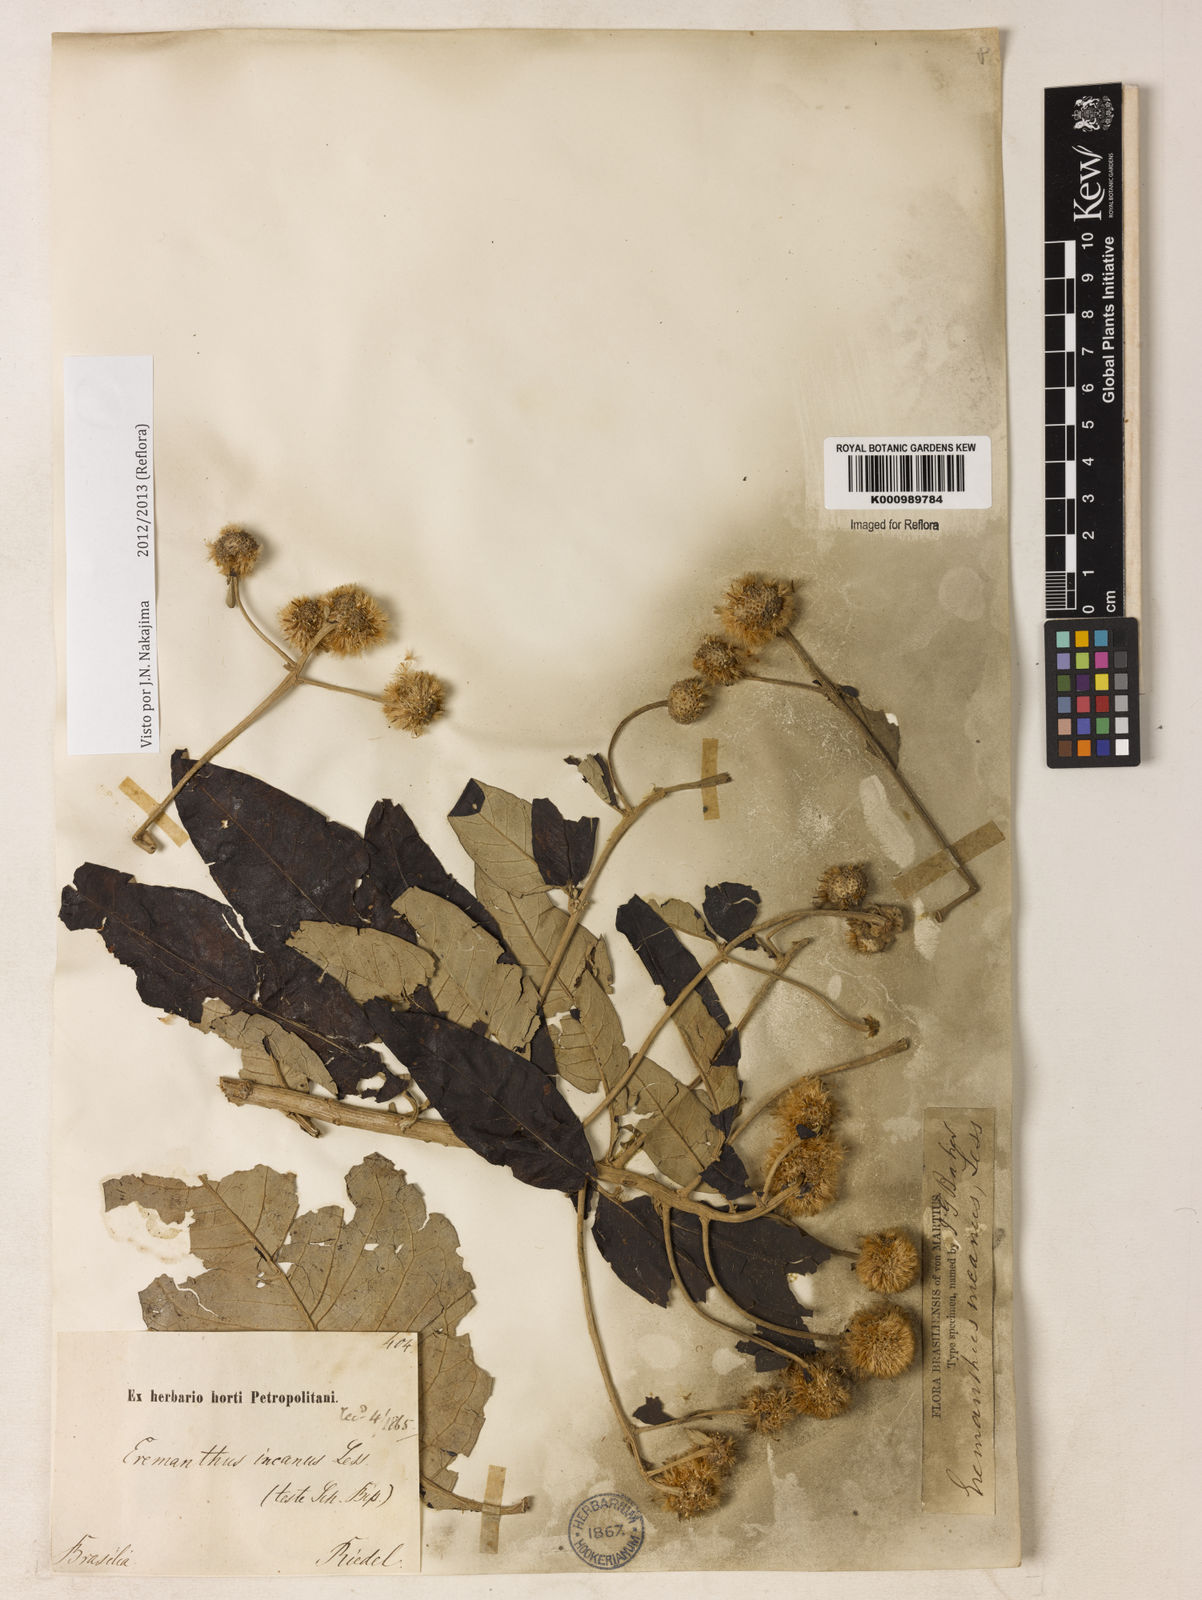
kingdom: Plantae
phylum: Tracheophyta
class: Magnoliopsida
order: Asterales
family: Asteraceae
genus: Eremanthus
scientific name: Eremanthus incanus
